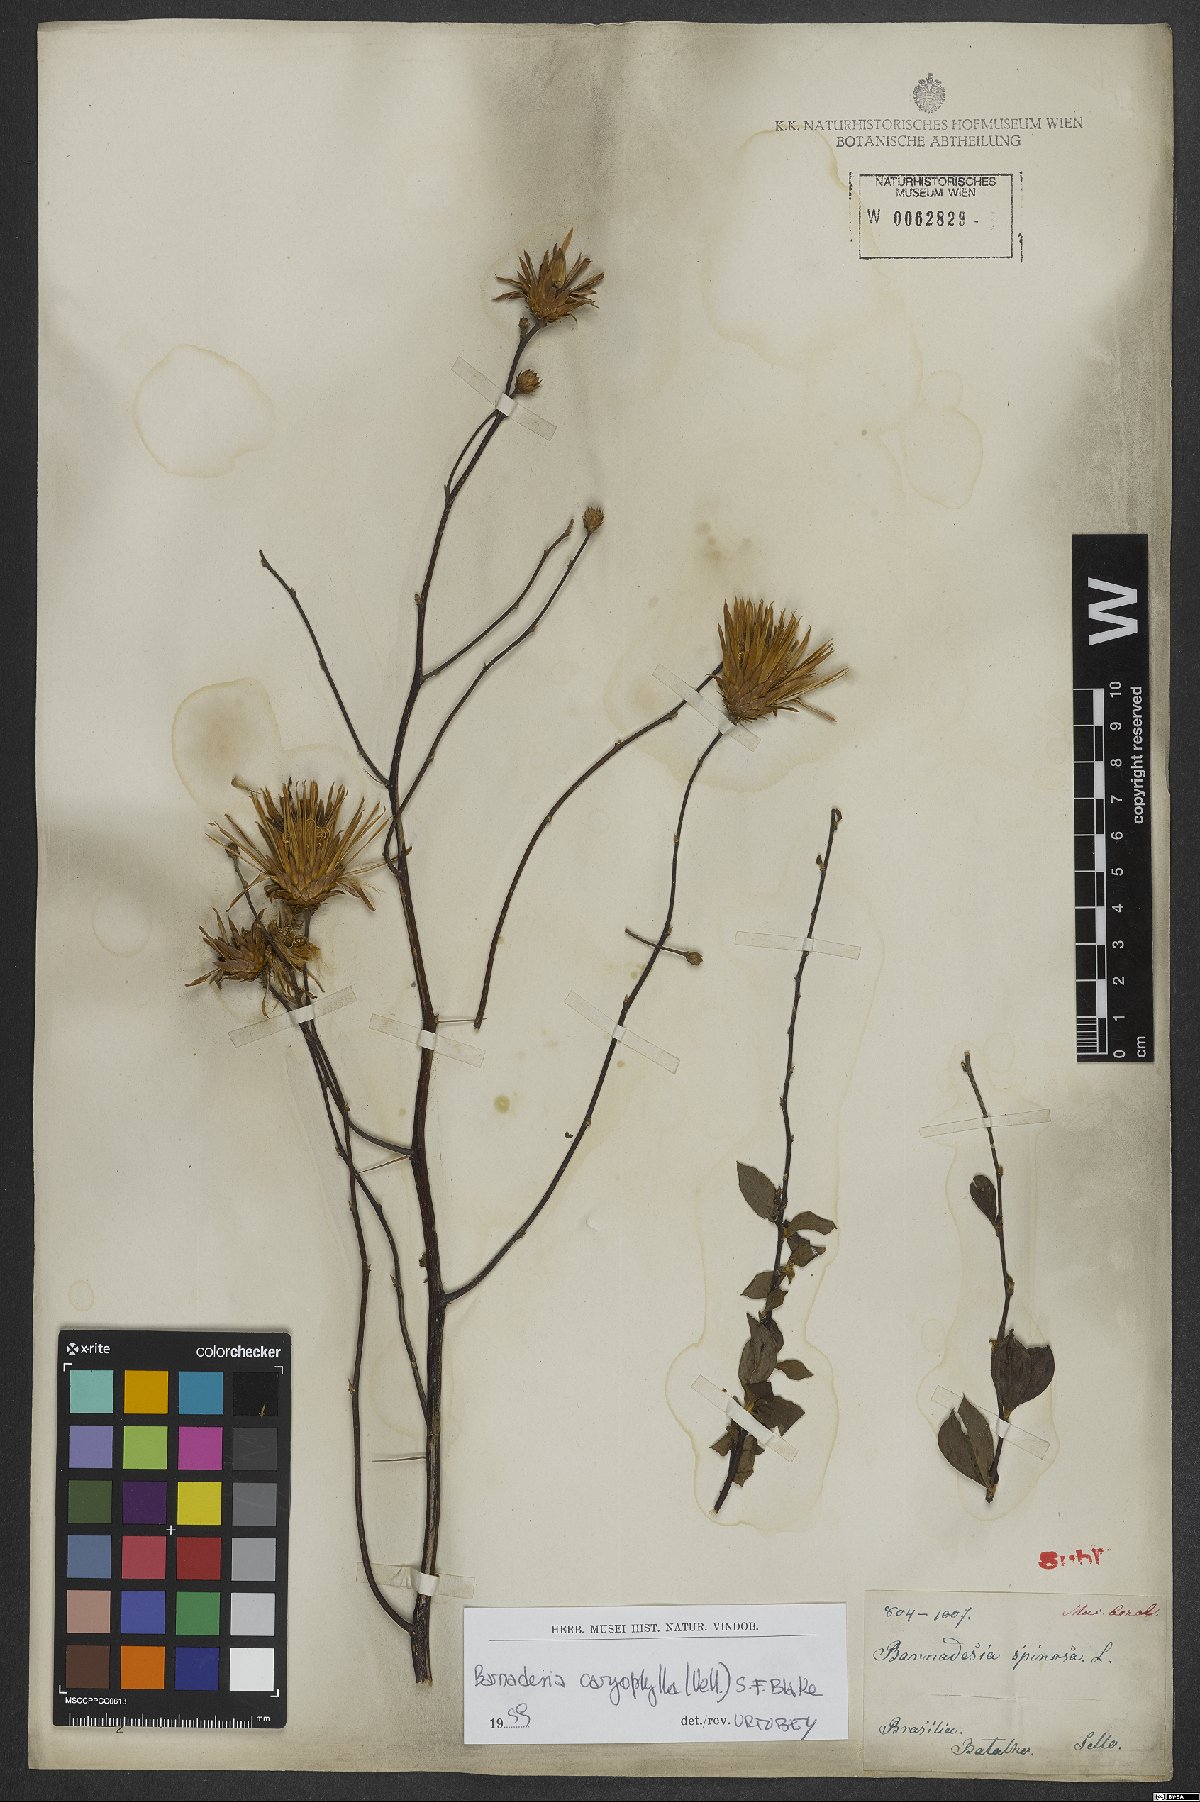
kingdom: Plantae
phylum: Tracheophyta
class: Magnoliopsida
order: Asterales
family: Asteraceae
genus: Barnadesia
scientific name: Barnadesia caryophylla
